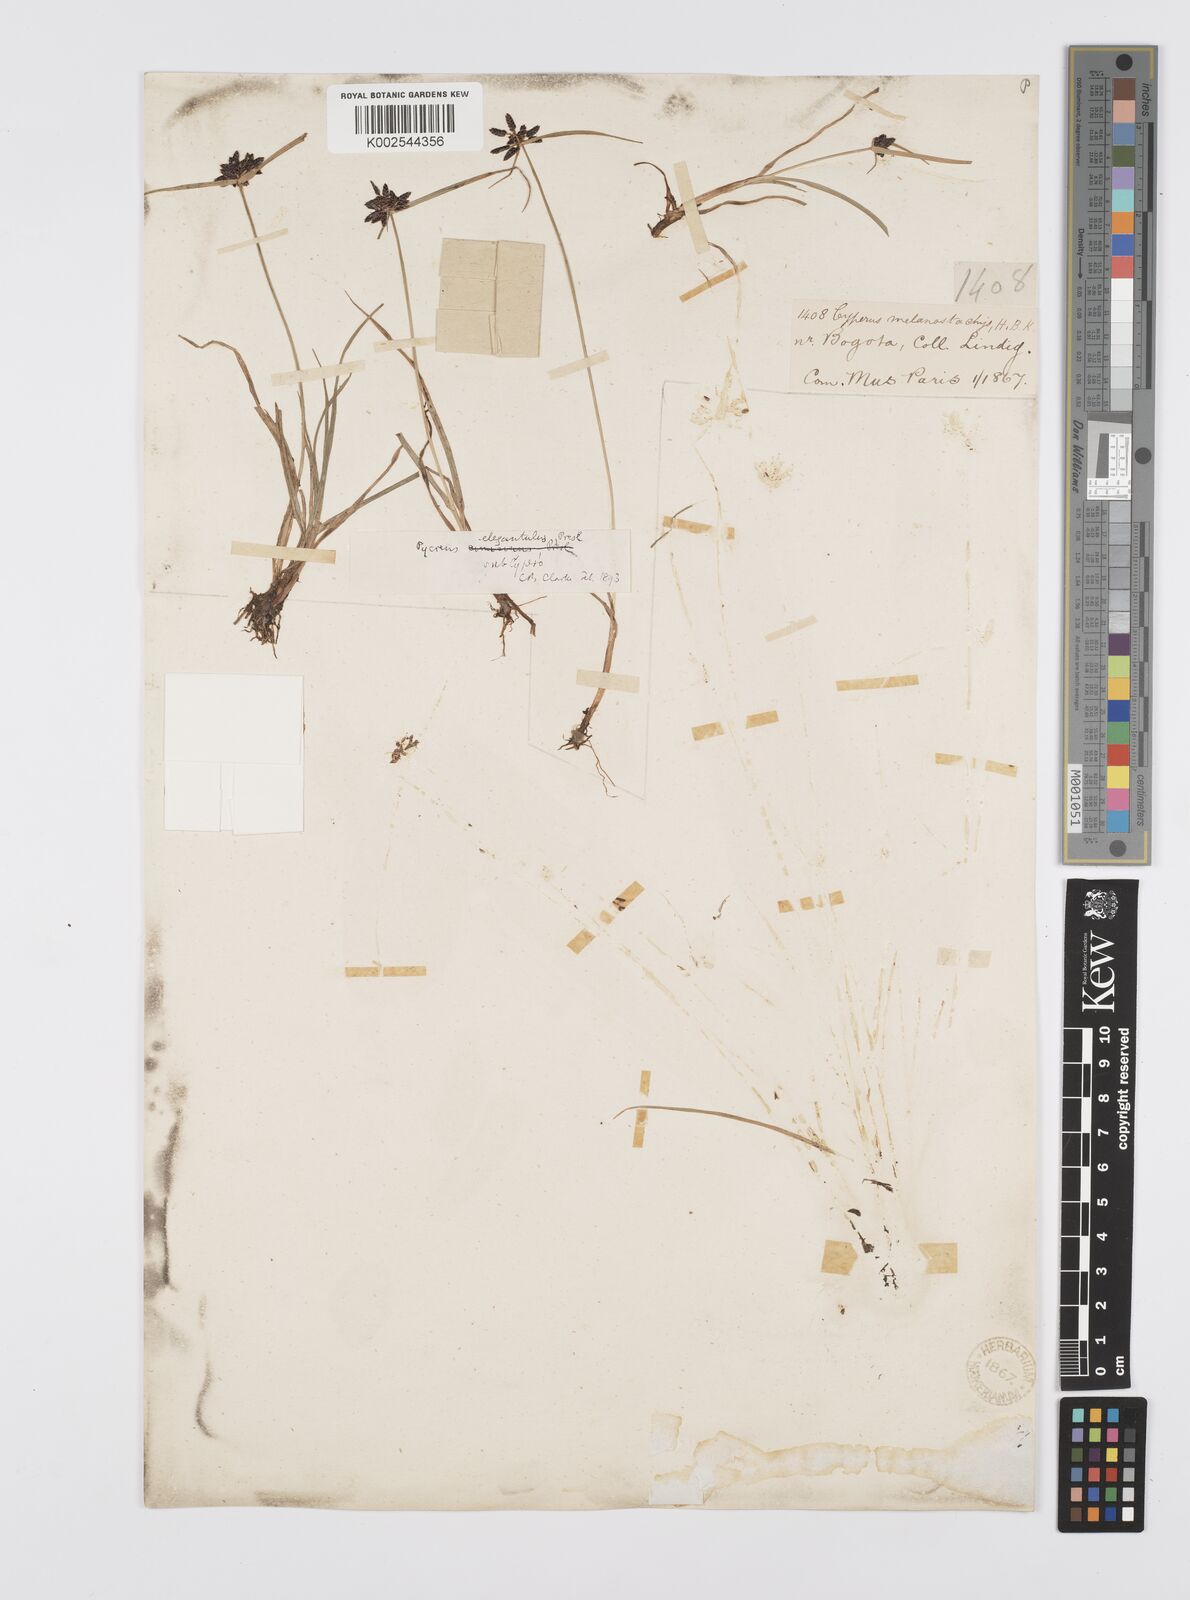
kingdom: Plantae
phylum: Tracheophyta
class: Liliopsida
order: Poales
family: Cyperaceae
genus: Cyperus
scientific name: Cyperus melanostachyus
